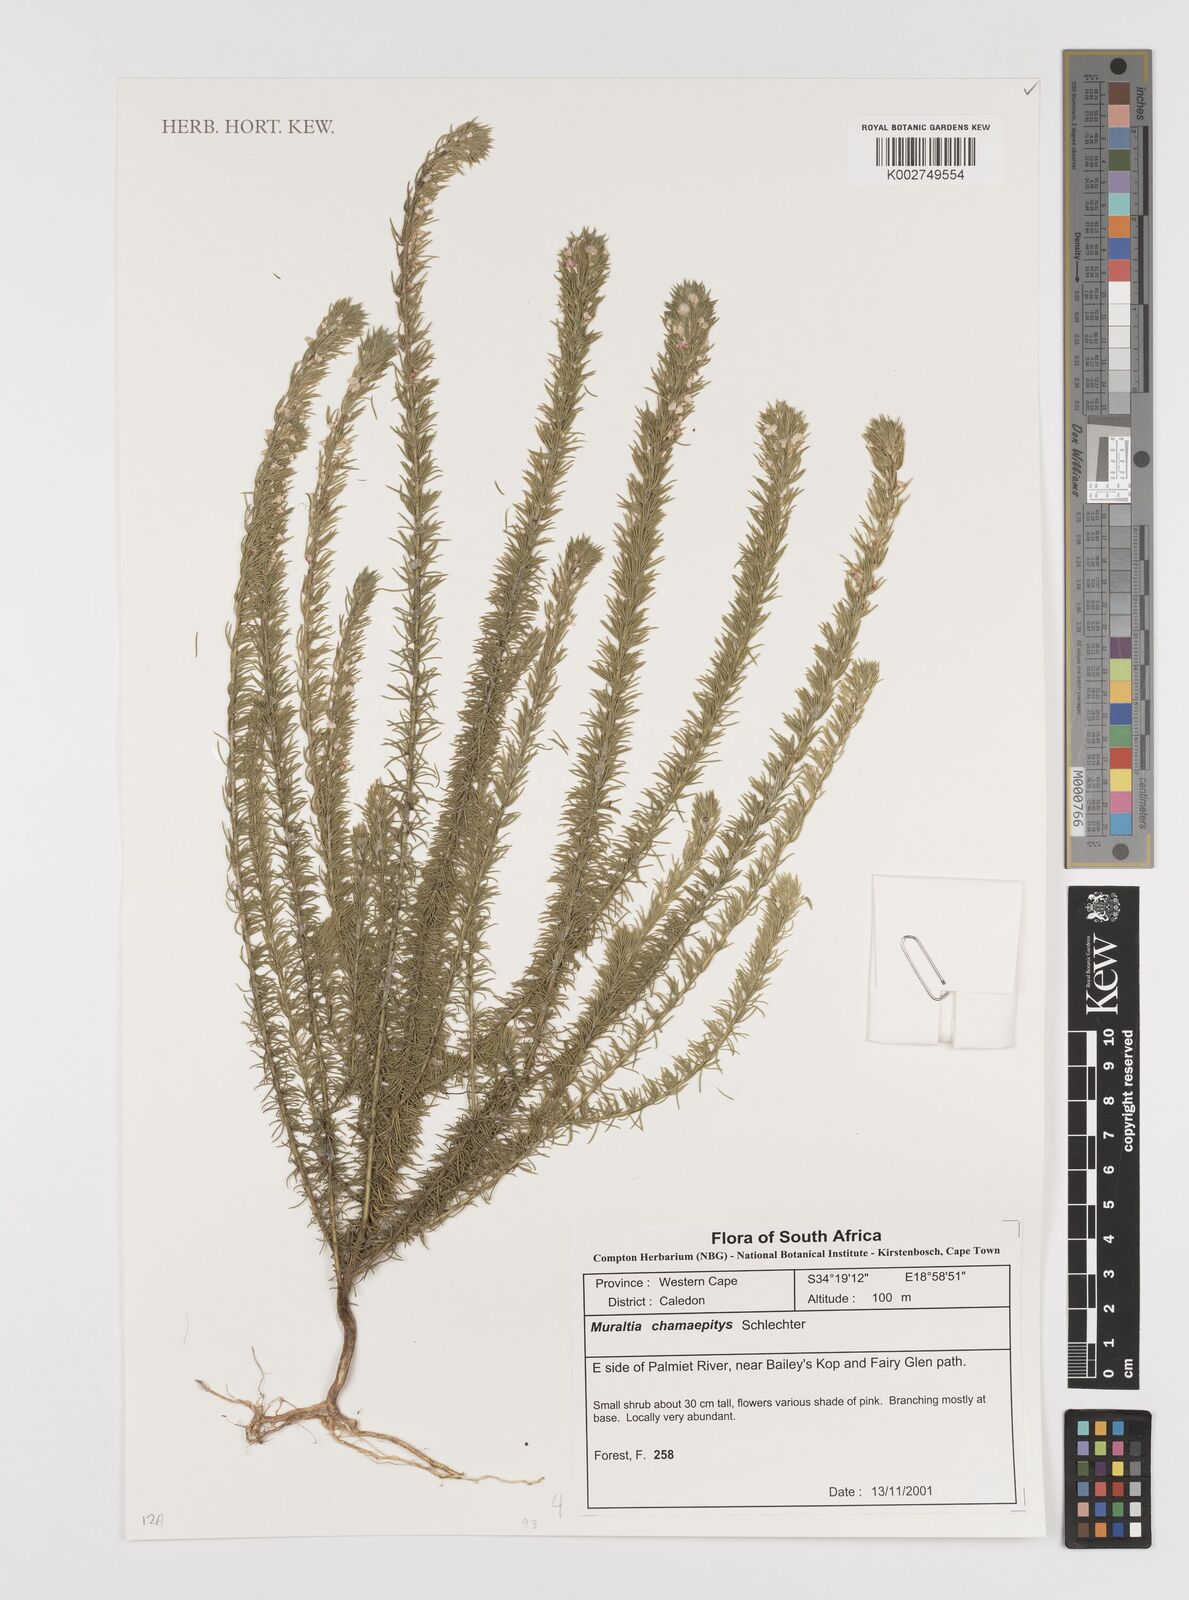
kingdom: Plantae
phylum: Tracheophyta
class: Magnoliopsida
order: Fabales
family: Polygalaceae
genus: Muraltia
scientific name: Muraltia alopecuroides
